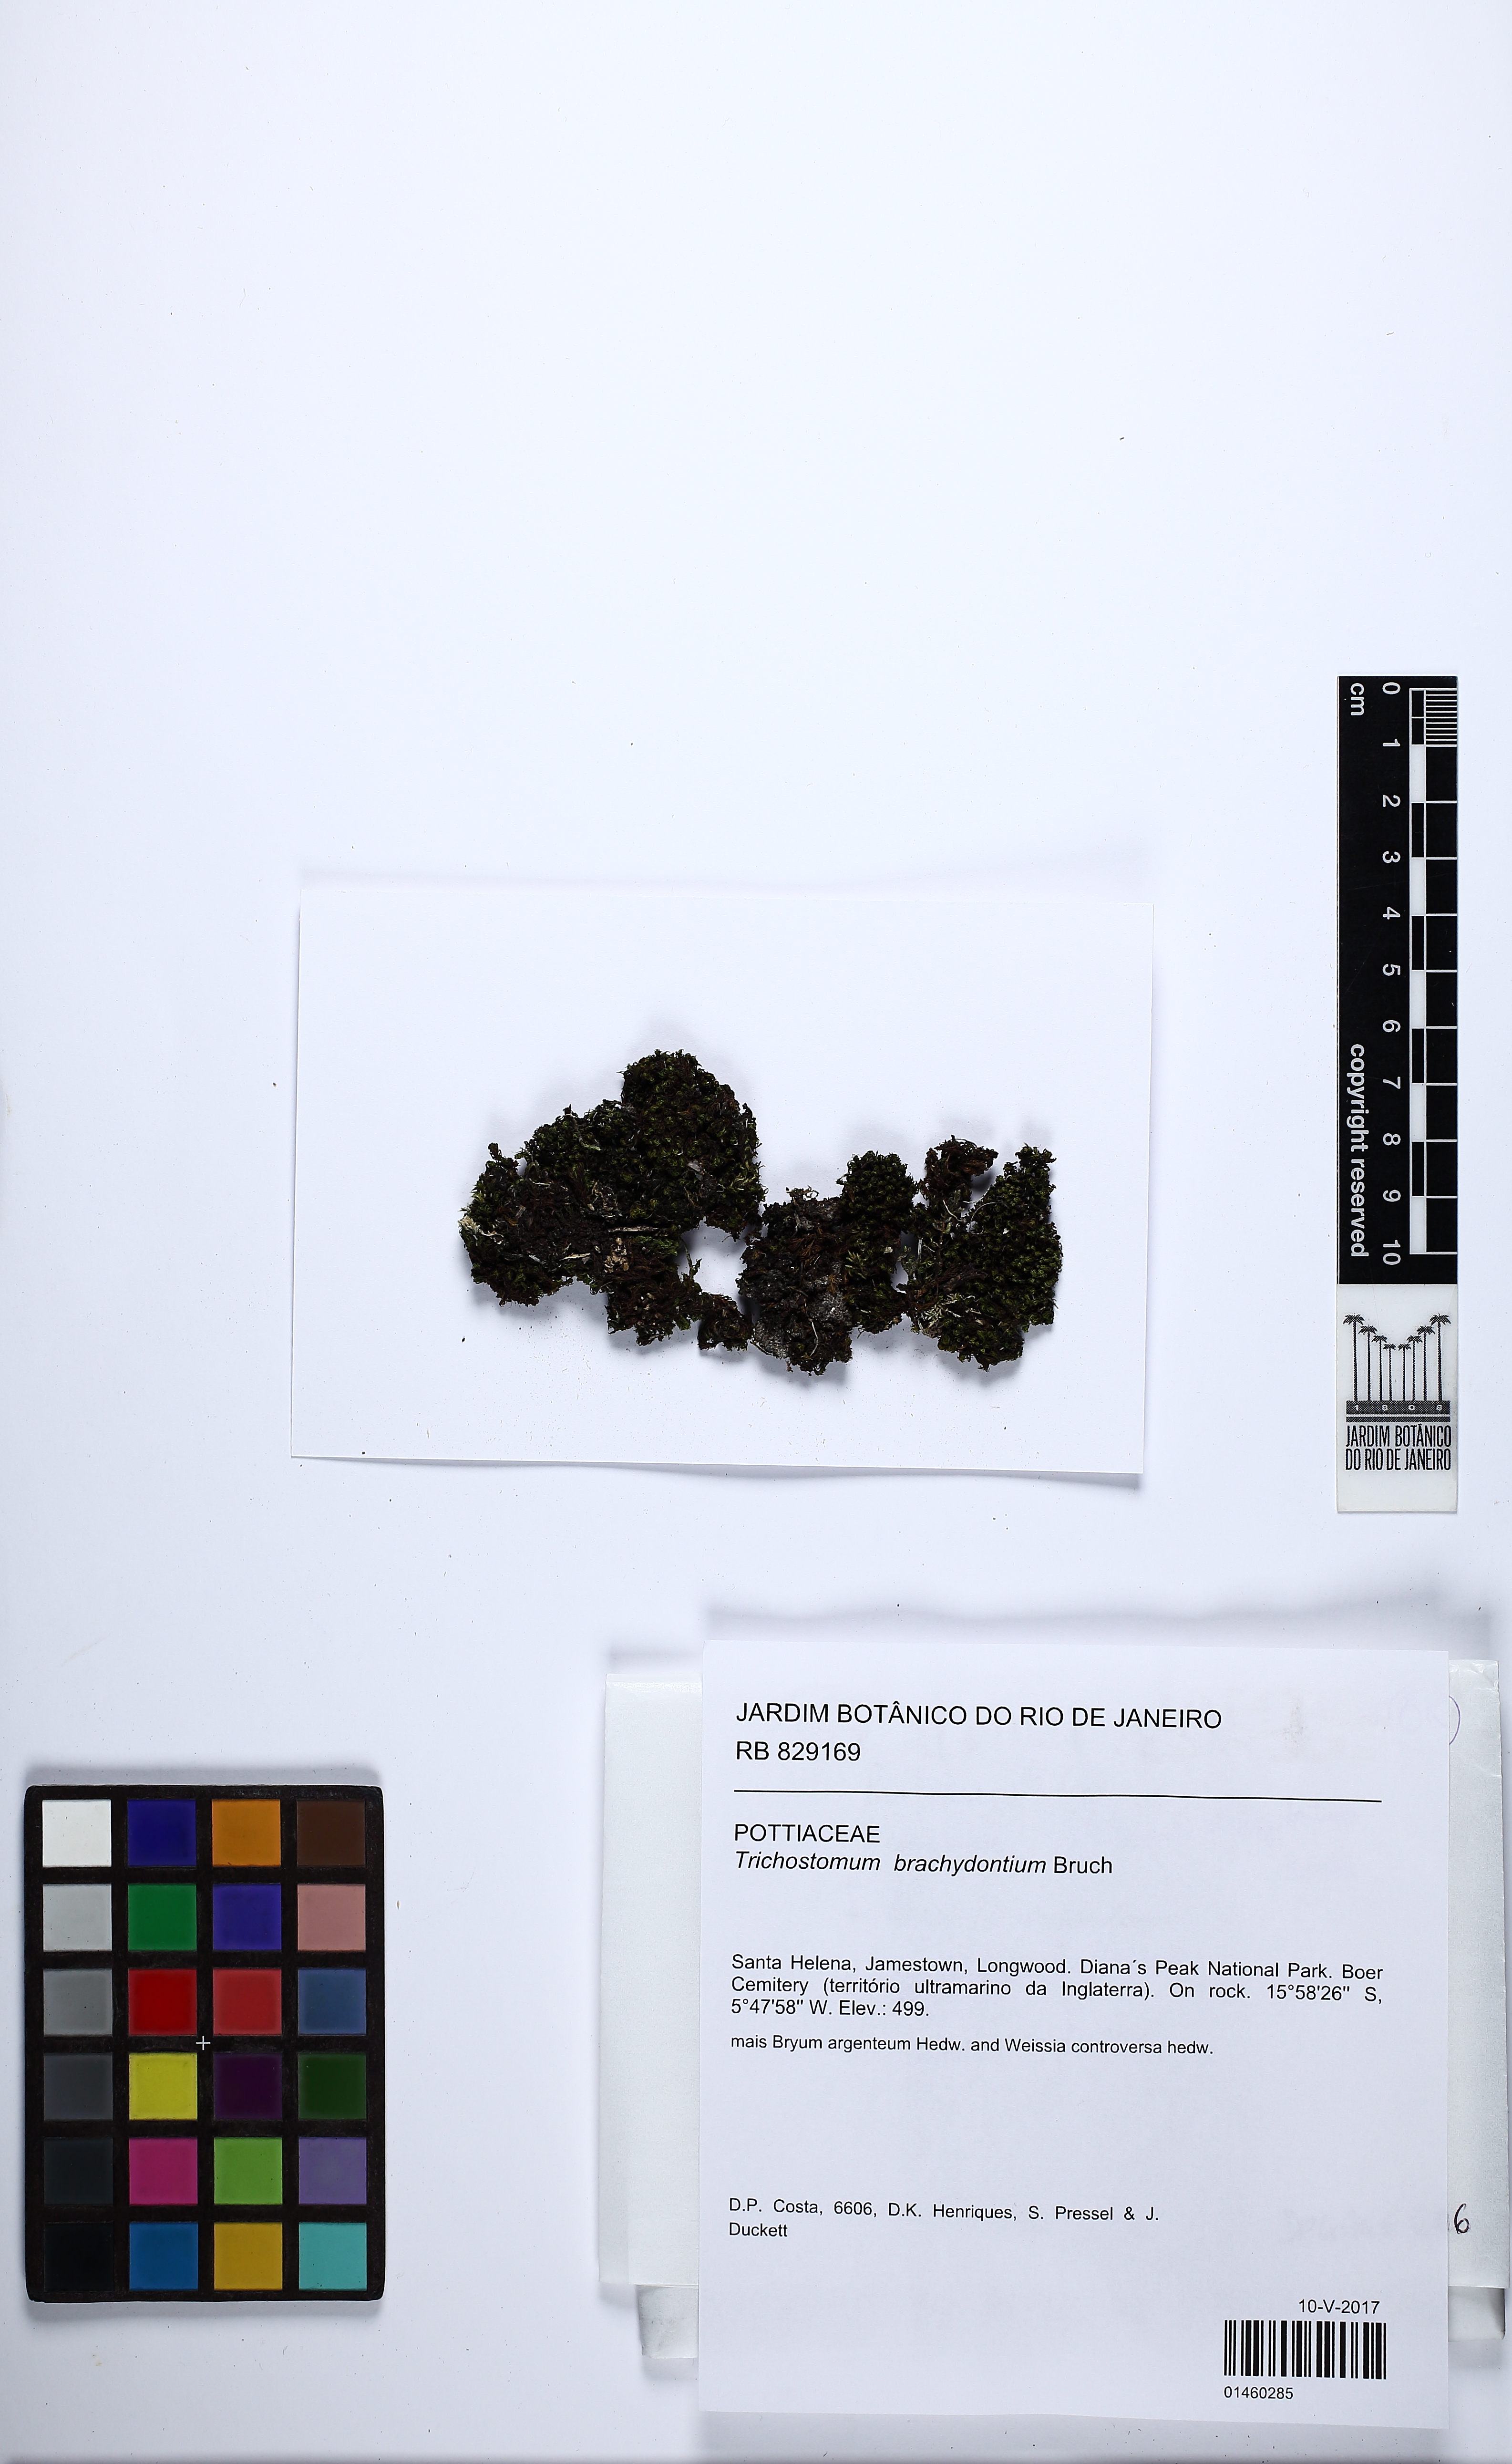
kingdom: Plantae
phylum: Bryophyta
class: Bryopsida
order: Pottiales
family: Pottiaceae
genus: Trichostomum
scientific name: Trichostomum brachydontium
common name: Variable crisp-moss
